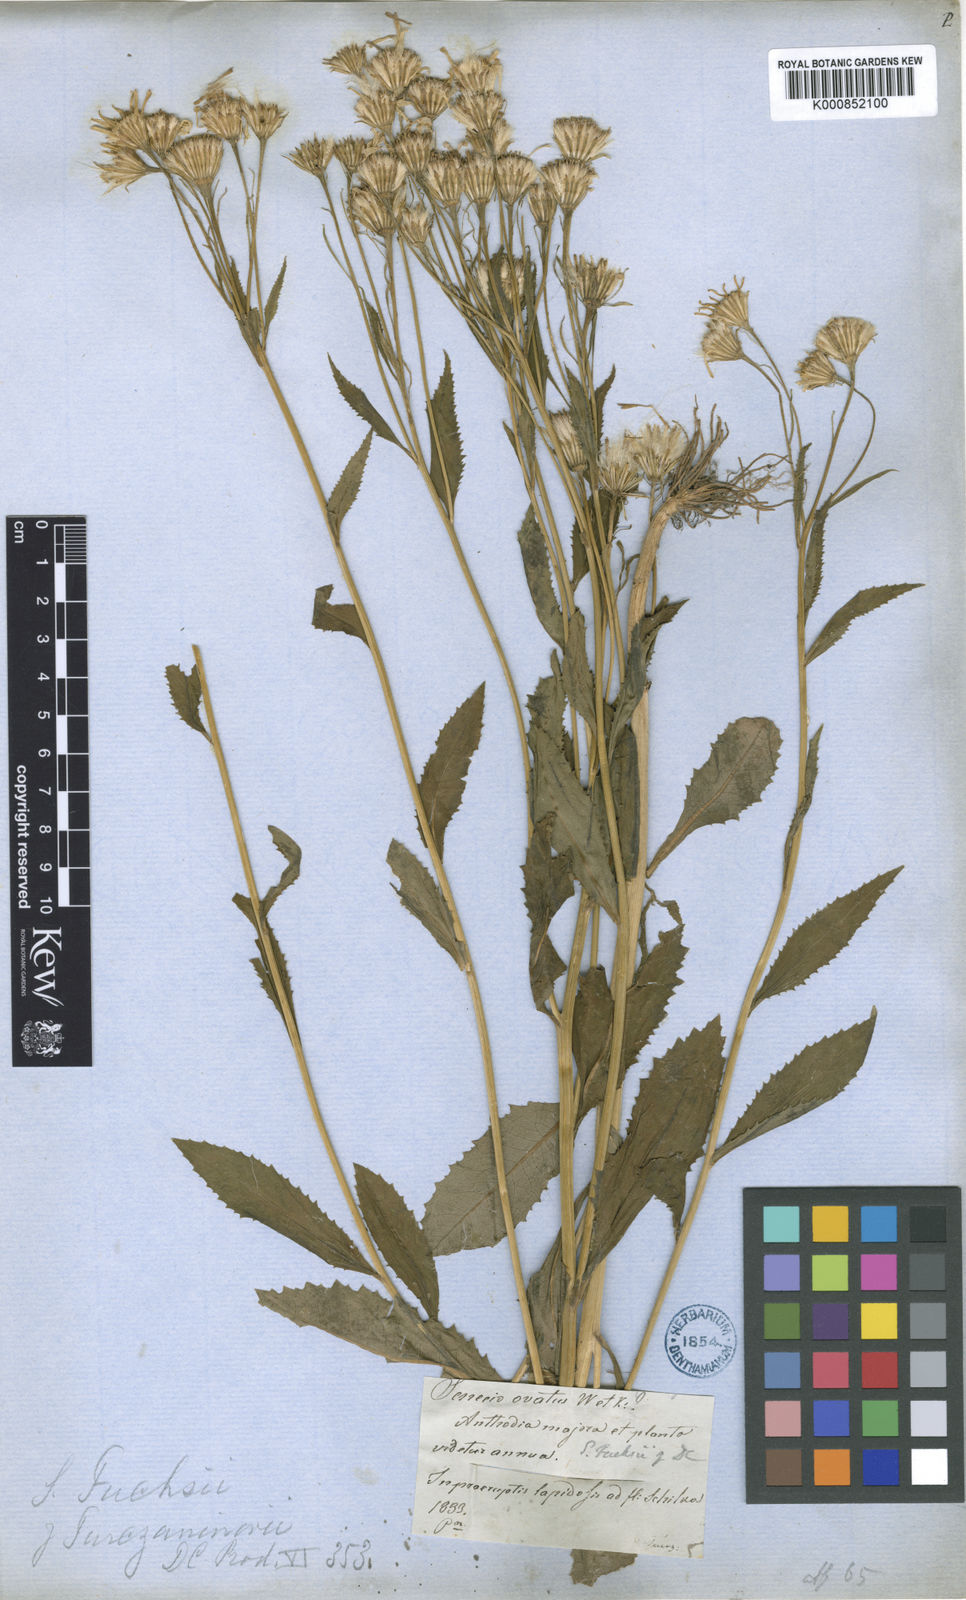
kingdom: Plantae
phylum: Tracheophyta
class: Magnoliopsida
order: Asterales
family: Asteraceae
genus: Senecio
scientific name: Senecio nemorensis
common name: Alpine ragwort
